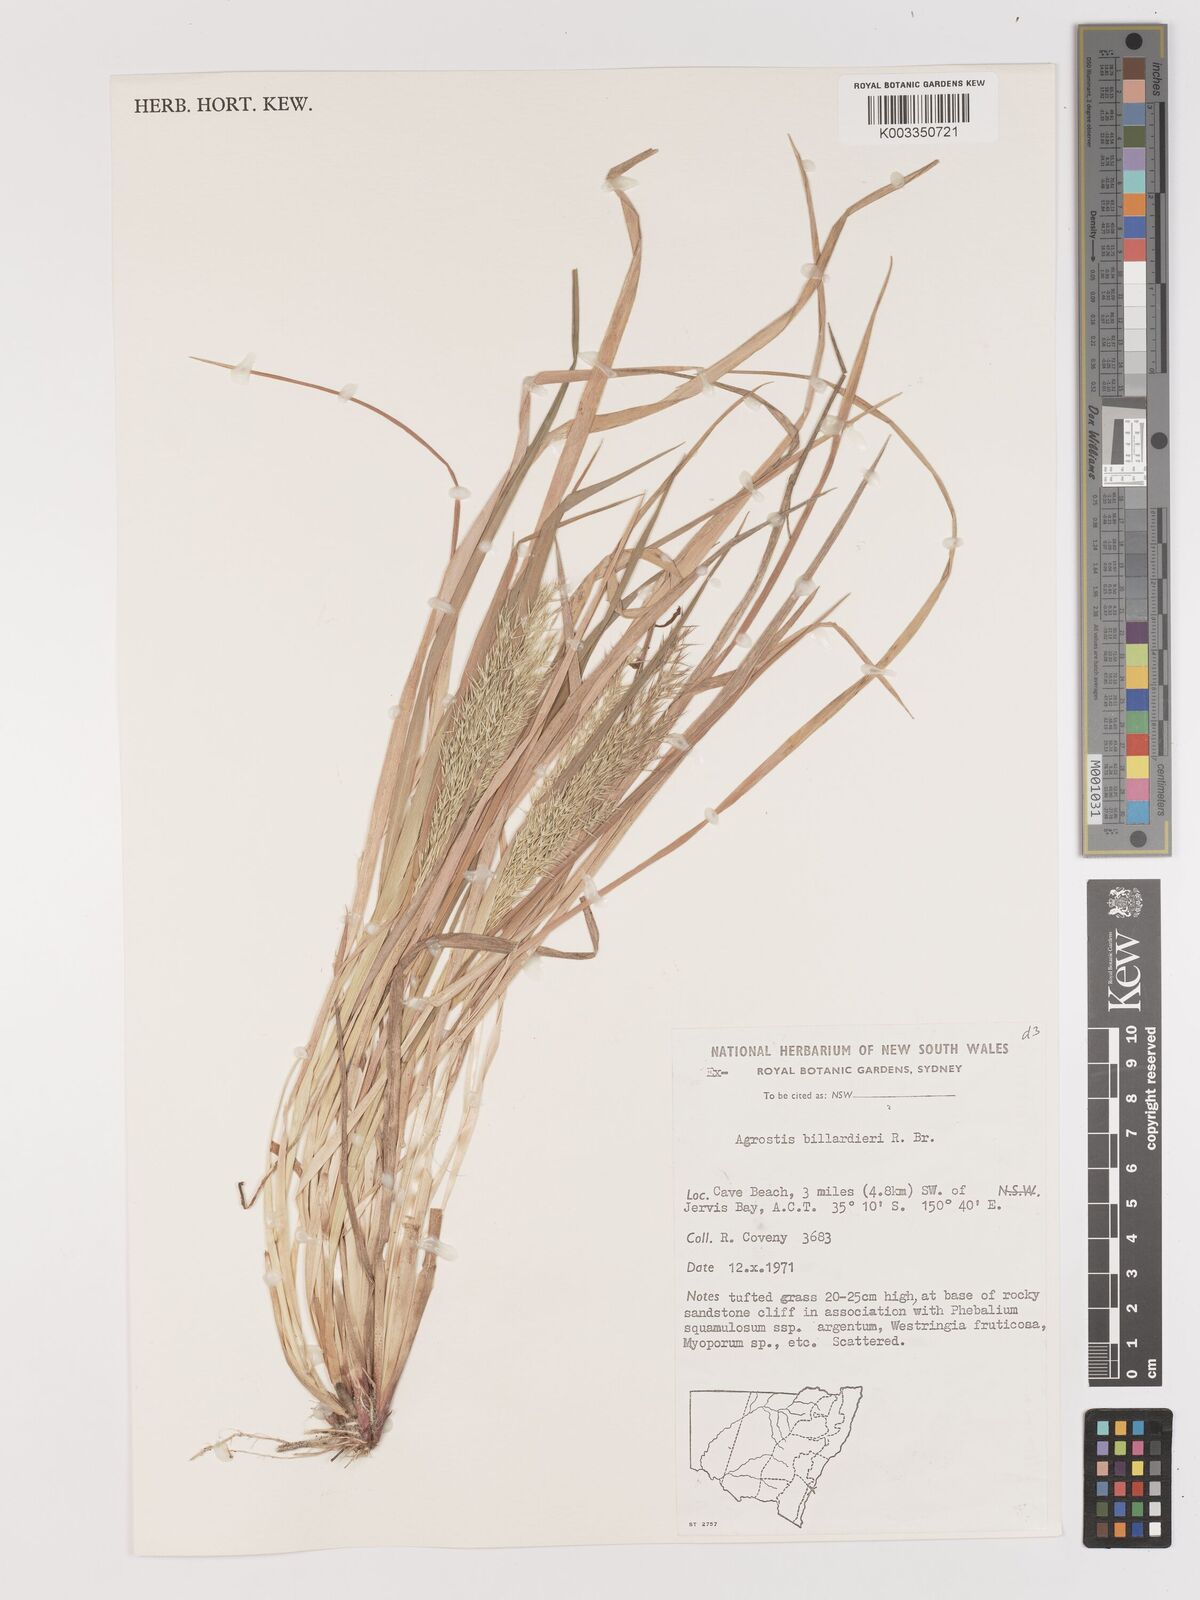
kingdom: Plantae
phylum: Tracheophyta
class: Liliopsida
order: Poales
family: Poaceae
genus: Lachnagrostis
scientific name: Lachnagrostis billardierei
